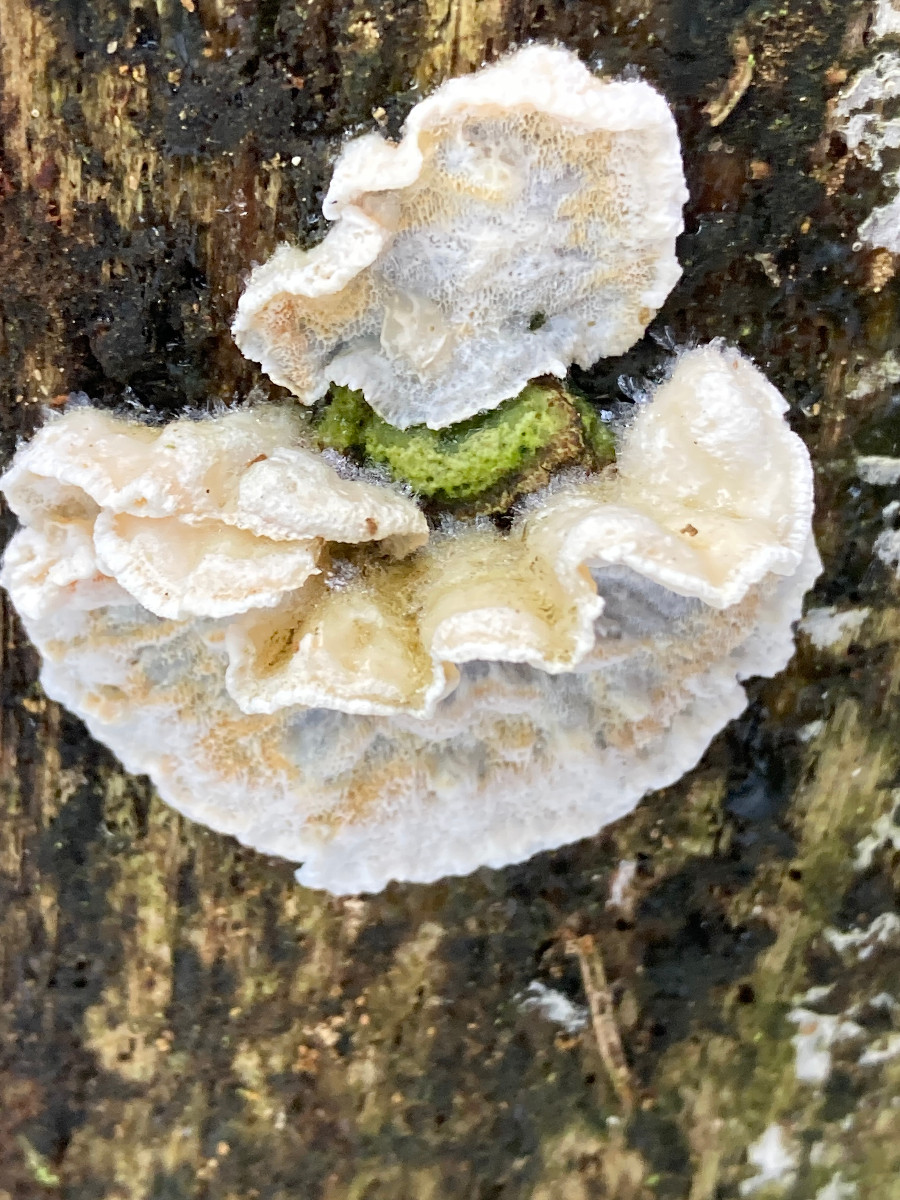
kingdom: Fungi
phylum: Basidiomycota
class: Agaricomycetes
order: Polyporales
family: Incrustoporiaceae
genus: Skeletocutis
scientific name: Skeletocutis amorpha
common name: orange krystalporesvamp
